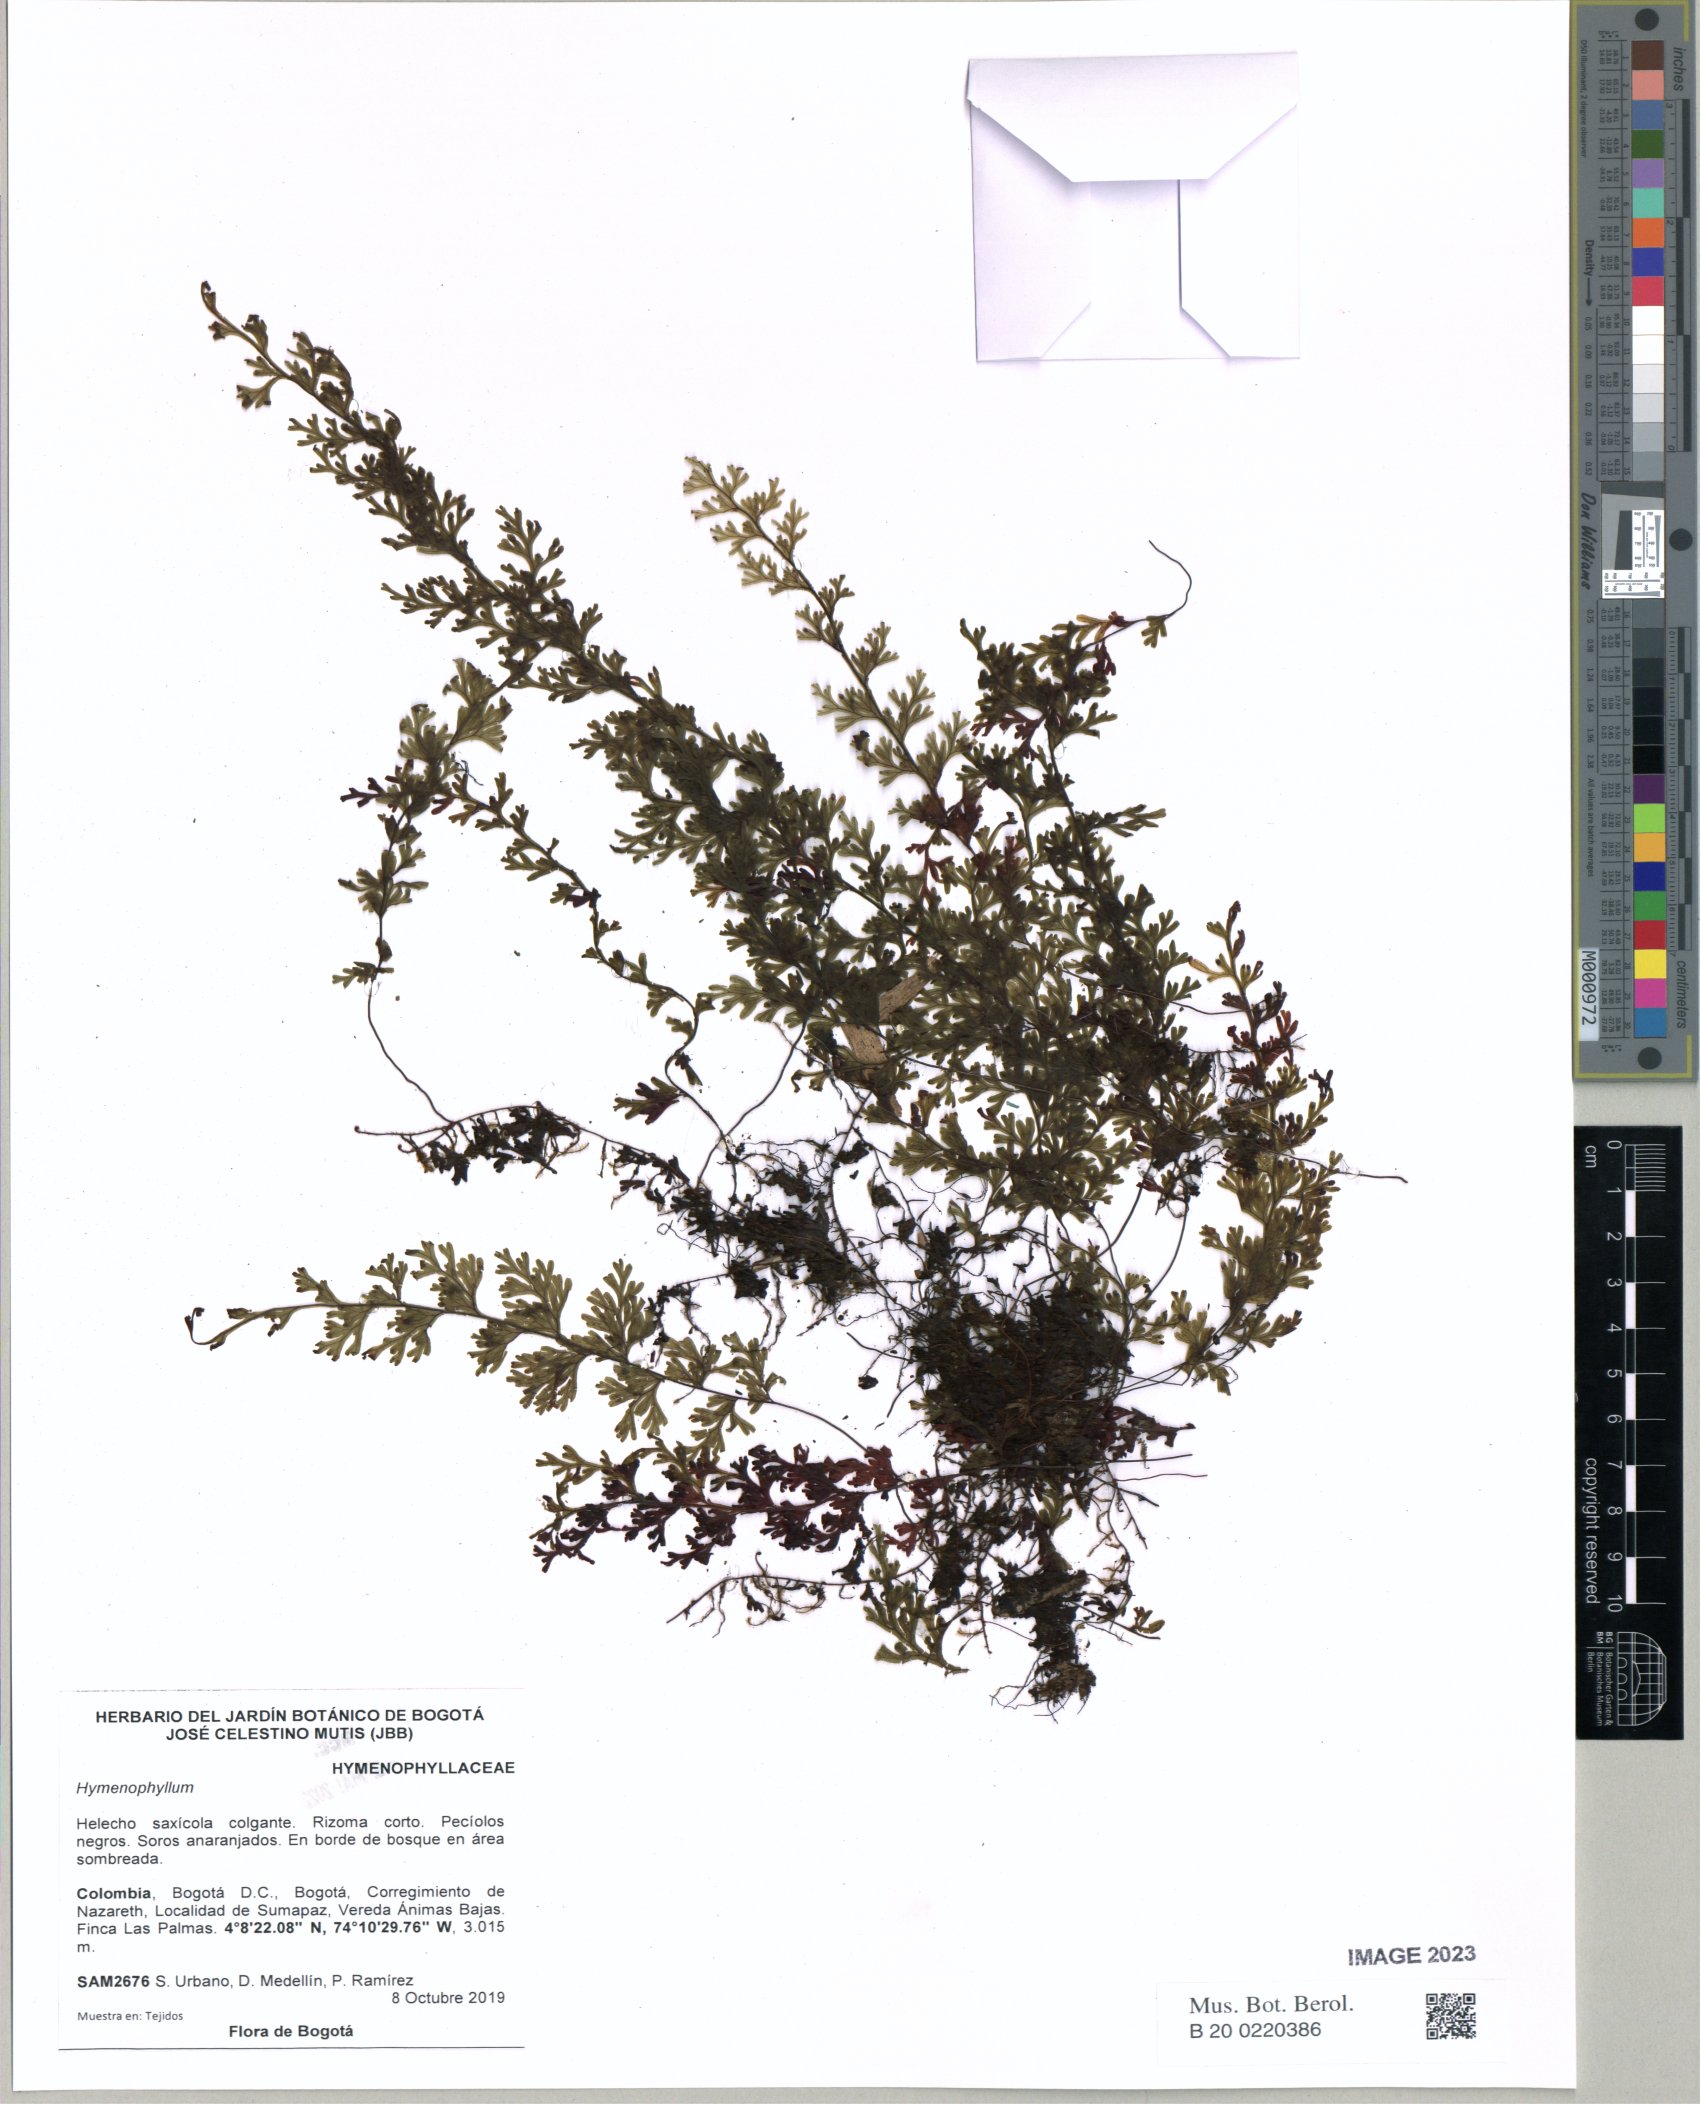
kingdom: Plantae
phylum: Tracheophyta
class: Polypodiopsida
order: Hymenophyllales
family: Hymenophyllaceae
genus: Hymenophyllum
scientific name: Hymenophyllum
